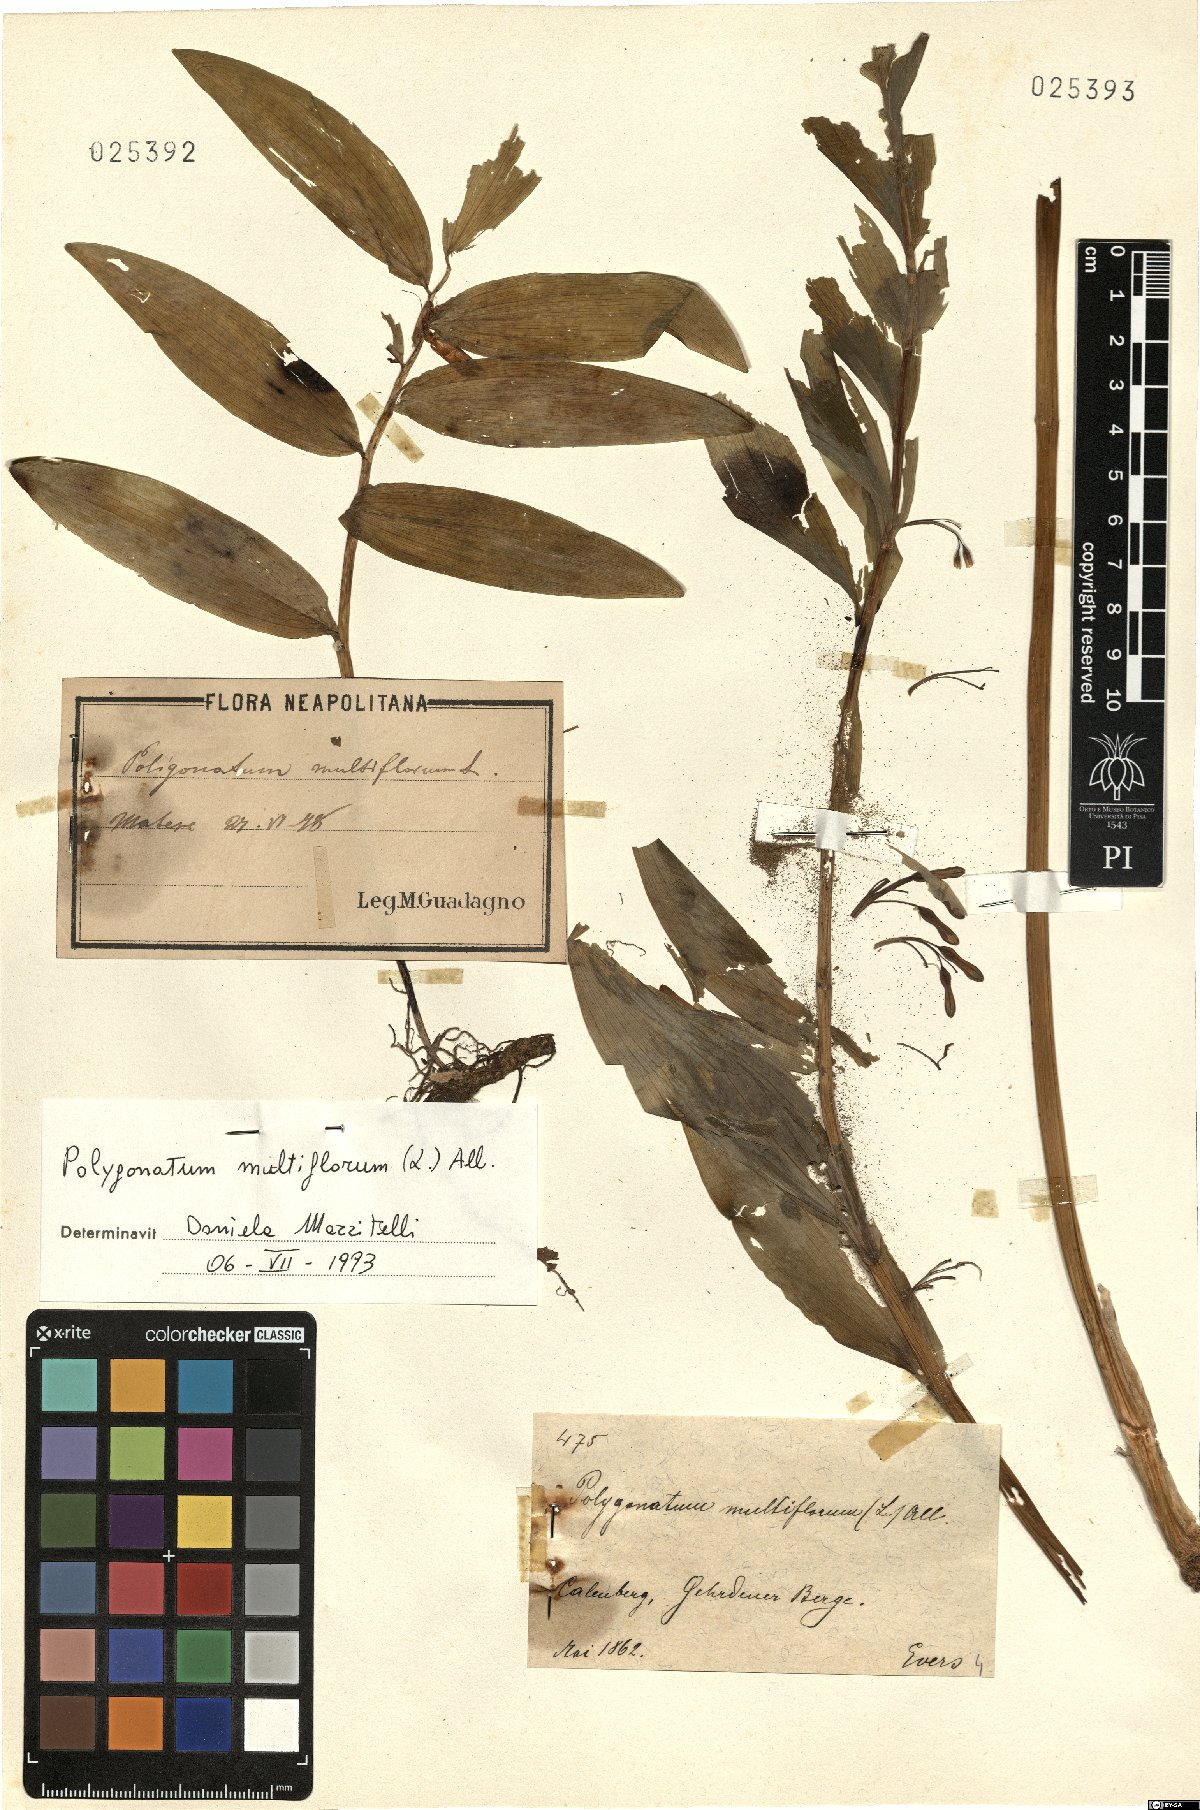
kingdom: Plantae
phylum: Tracheophyta
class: Liliopsida
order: Asparagales
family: Asparagaceae
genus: Polygonatum
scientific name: Polygonatum multiflorum
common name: Solomon's-seal
